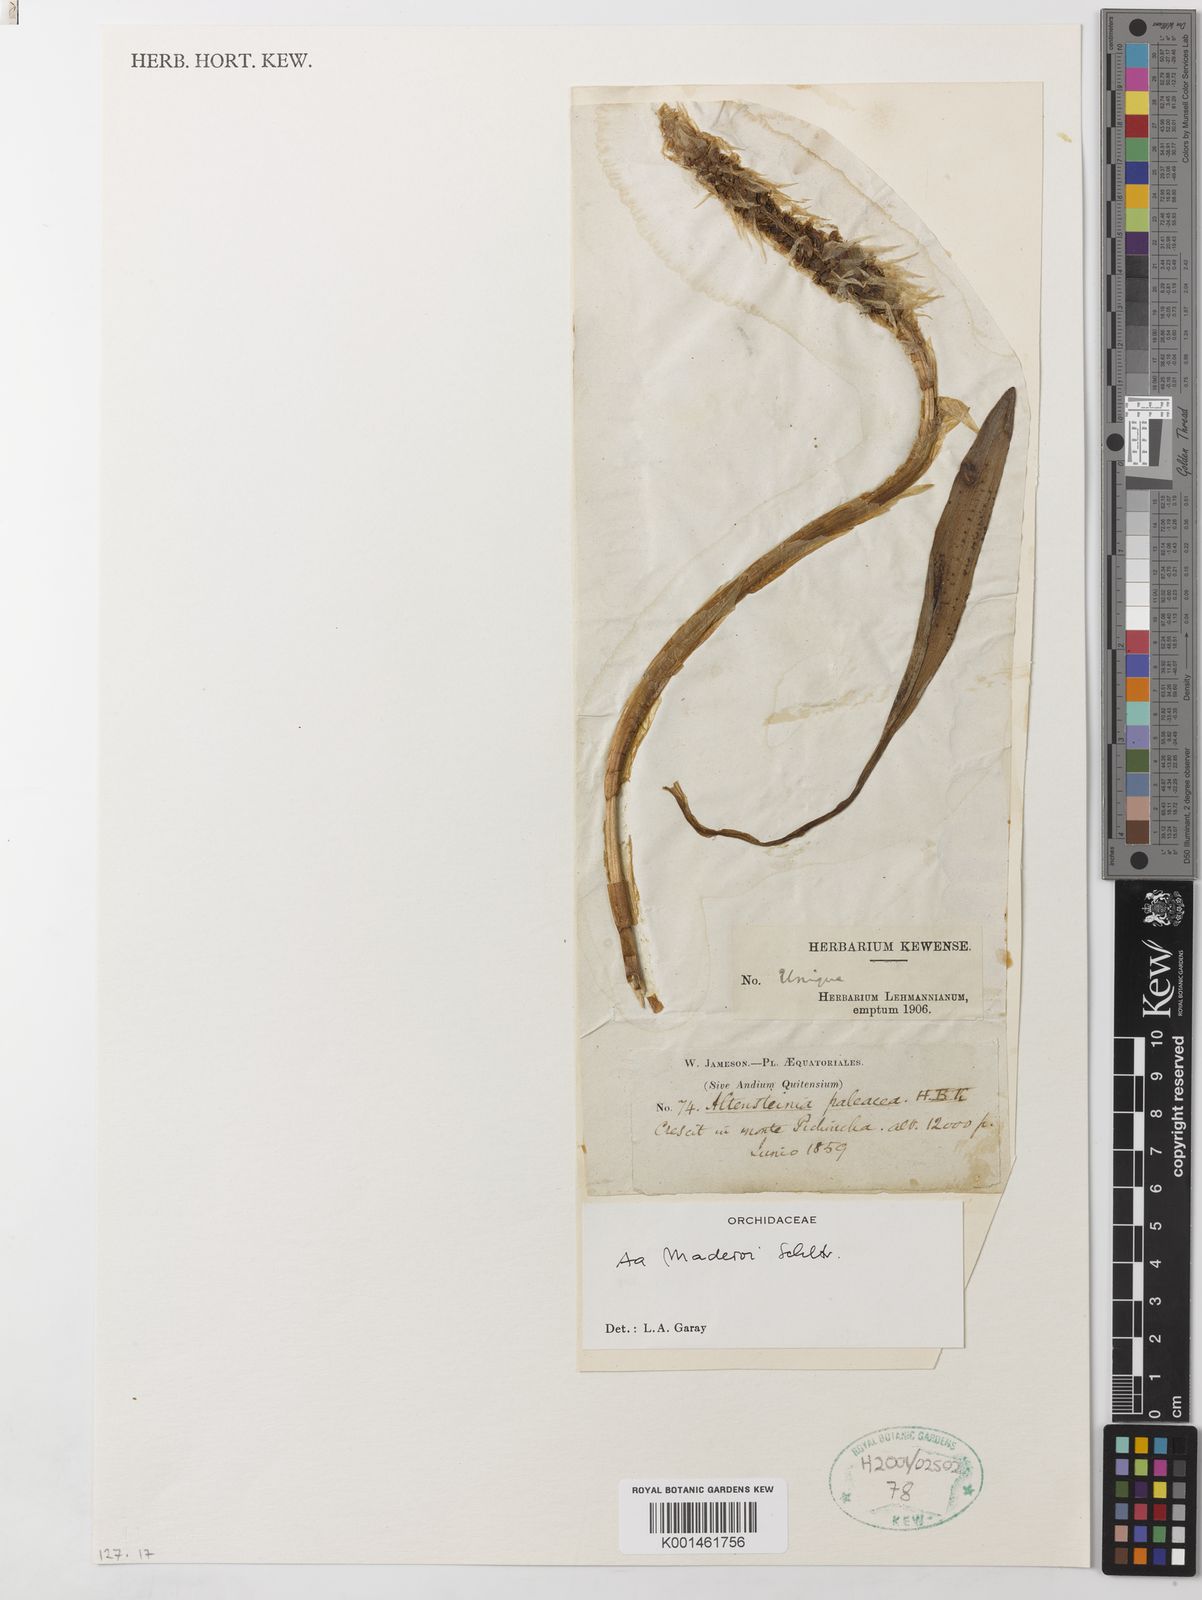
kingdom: Plantae
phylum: Tracheophyta
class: Liliopsida
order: Asparagales
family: Orchidaceae
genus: Aa
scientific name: Aa maderoi
